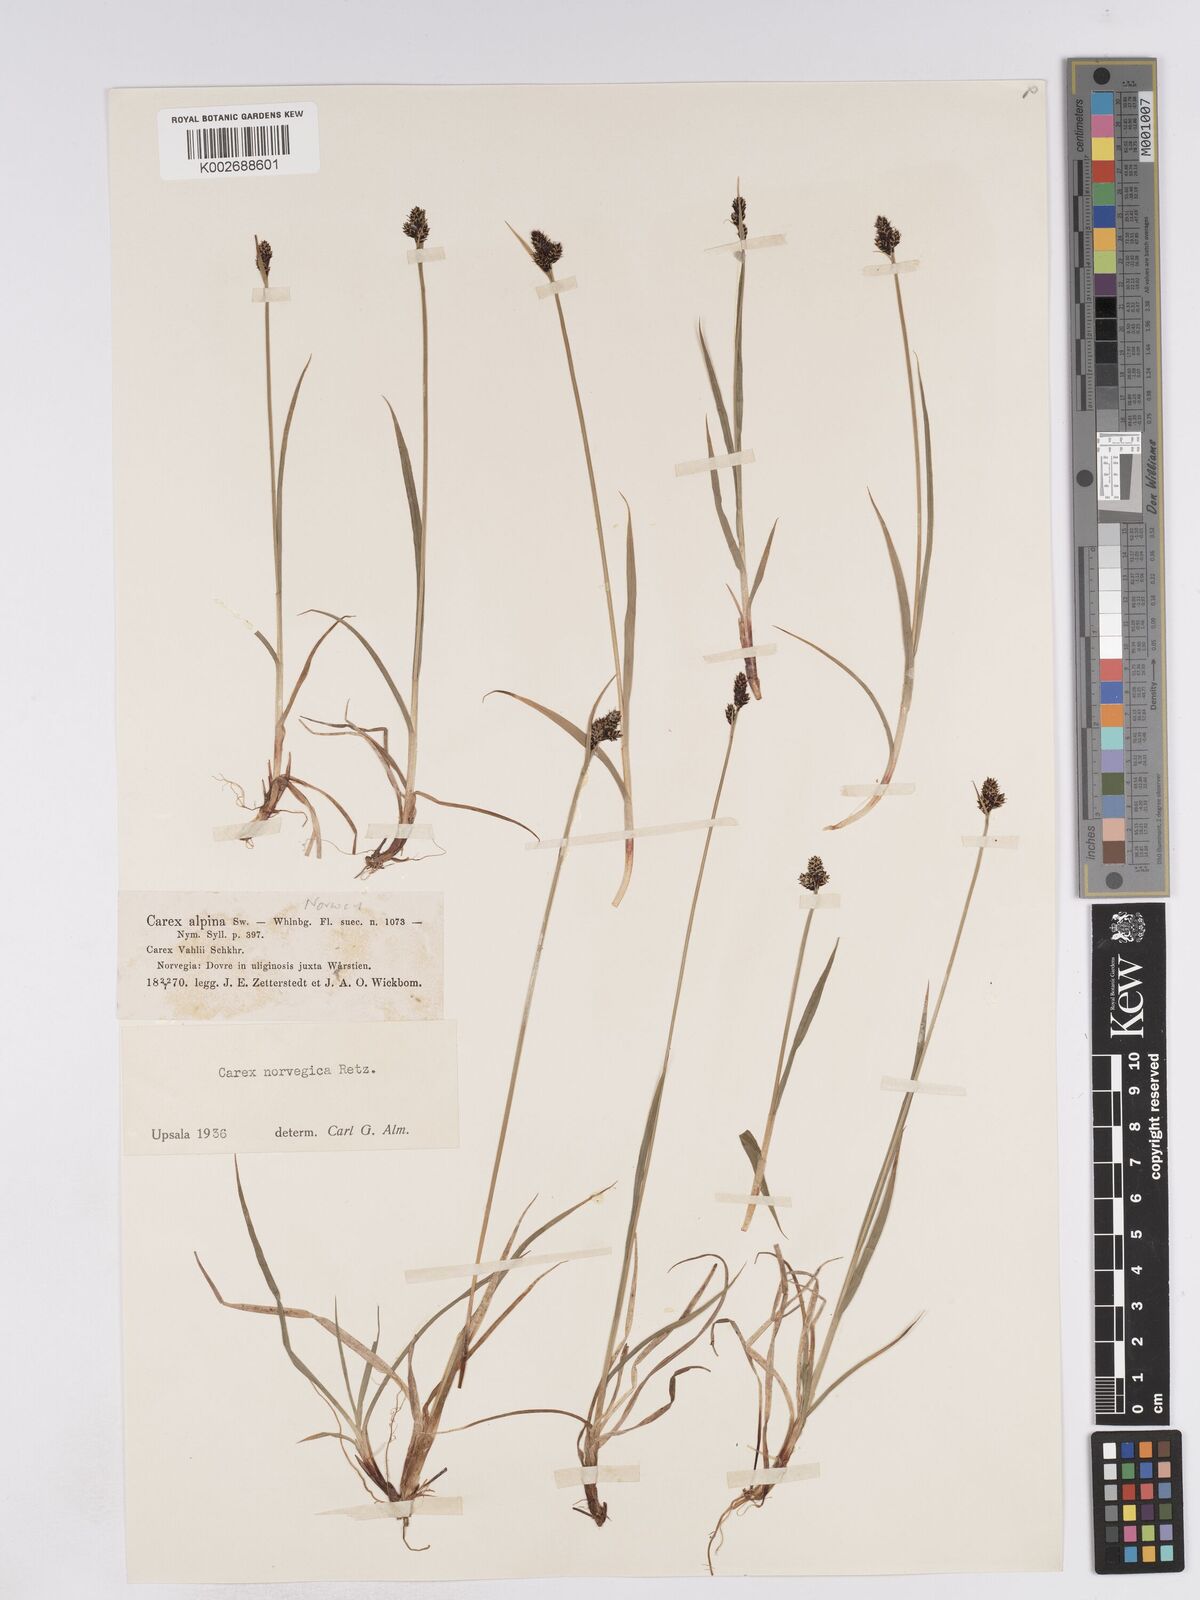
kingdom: Plantae
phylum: Tracheophyta
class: Liliopsida
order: Poales
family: Cyperaceae
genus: Carex
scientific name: Carex norvegica
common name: Close-headed alpine-sedge
